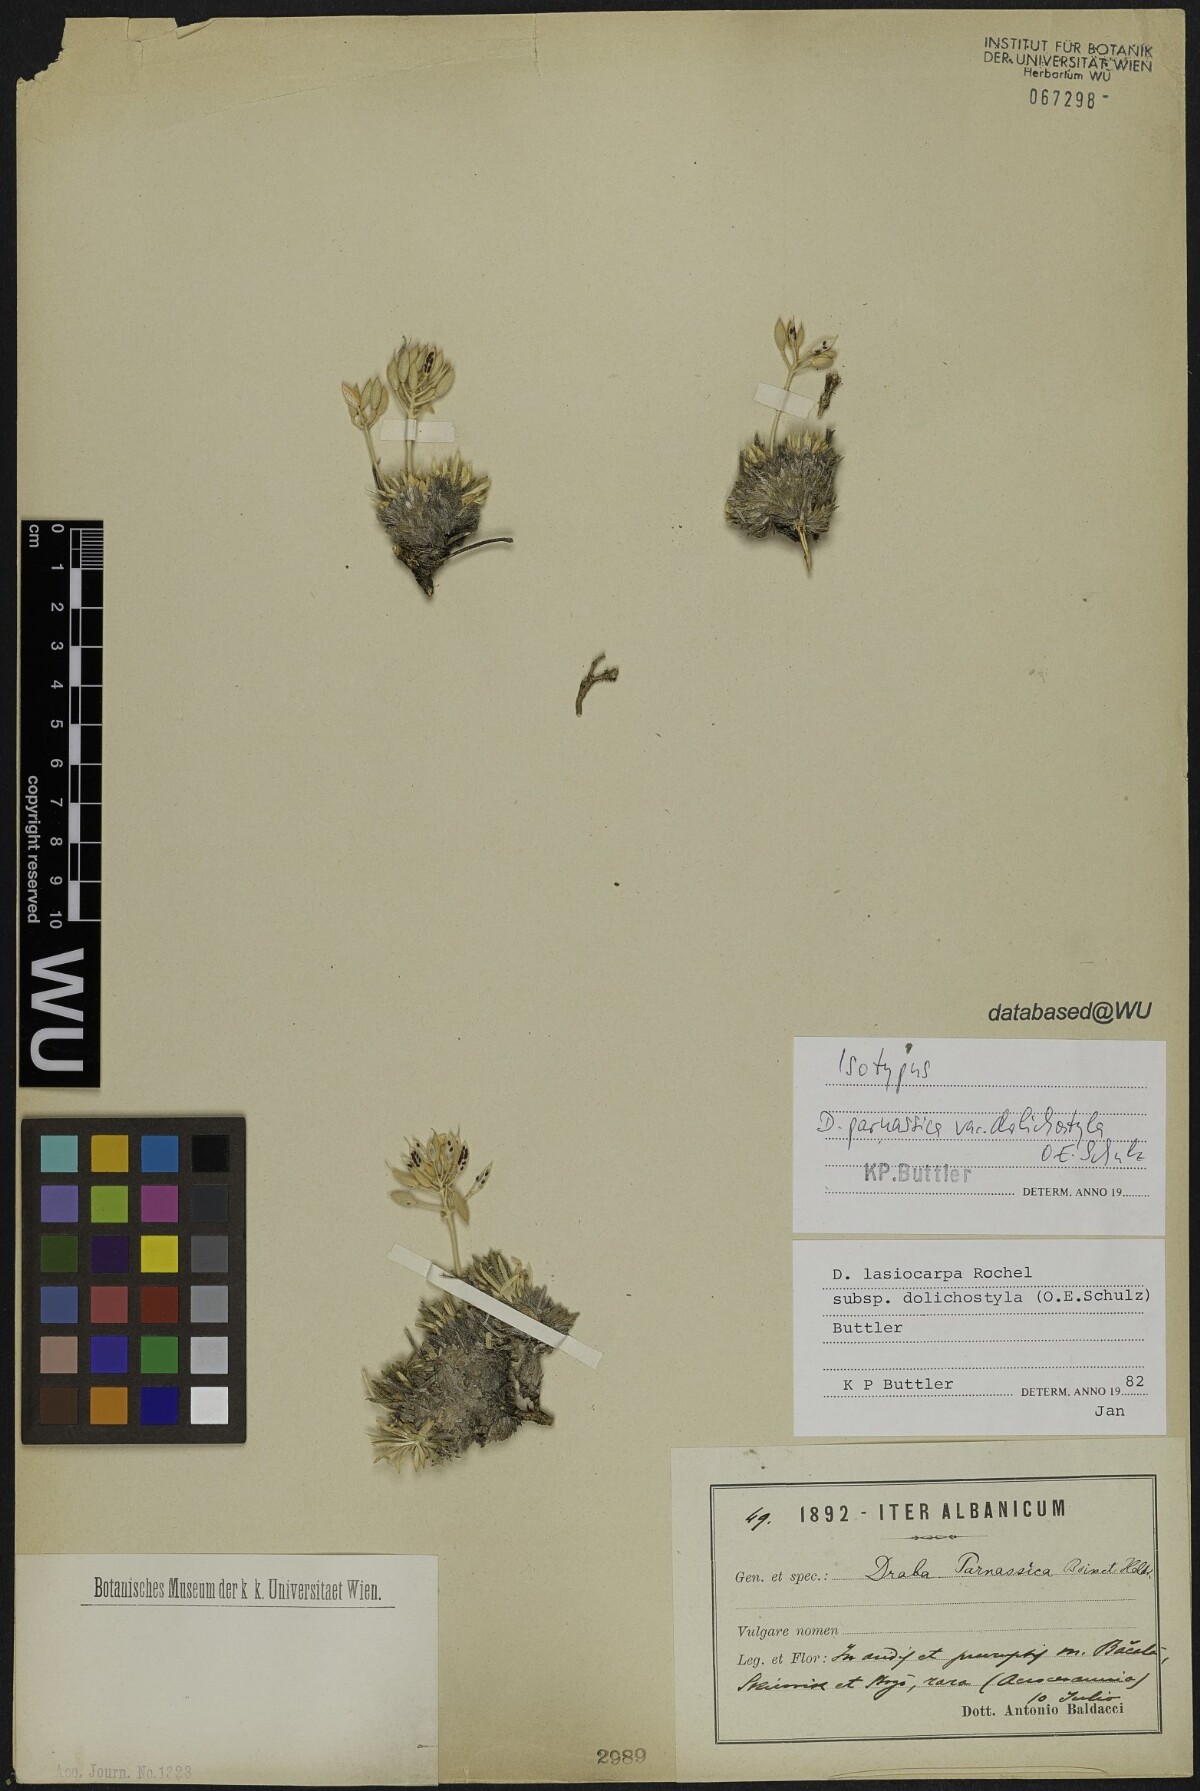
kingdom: Plantae
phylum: Tracheophyta
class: Magnoliopsida
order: Brassicales
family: Brassicaceae
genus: Draba
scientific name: Draba lasiocarpa
